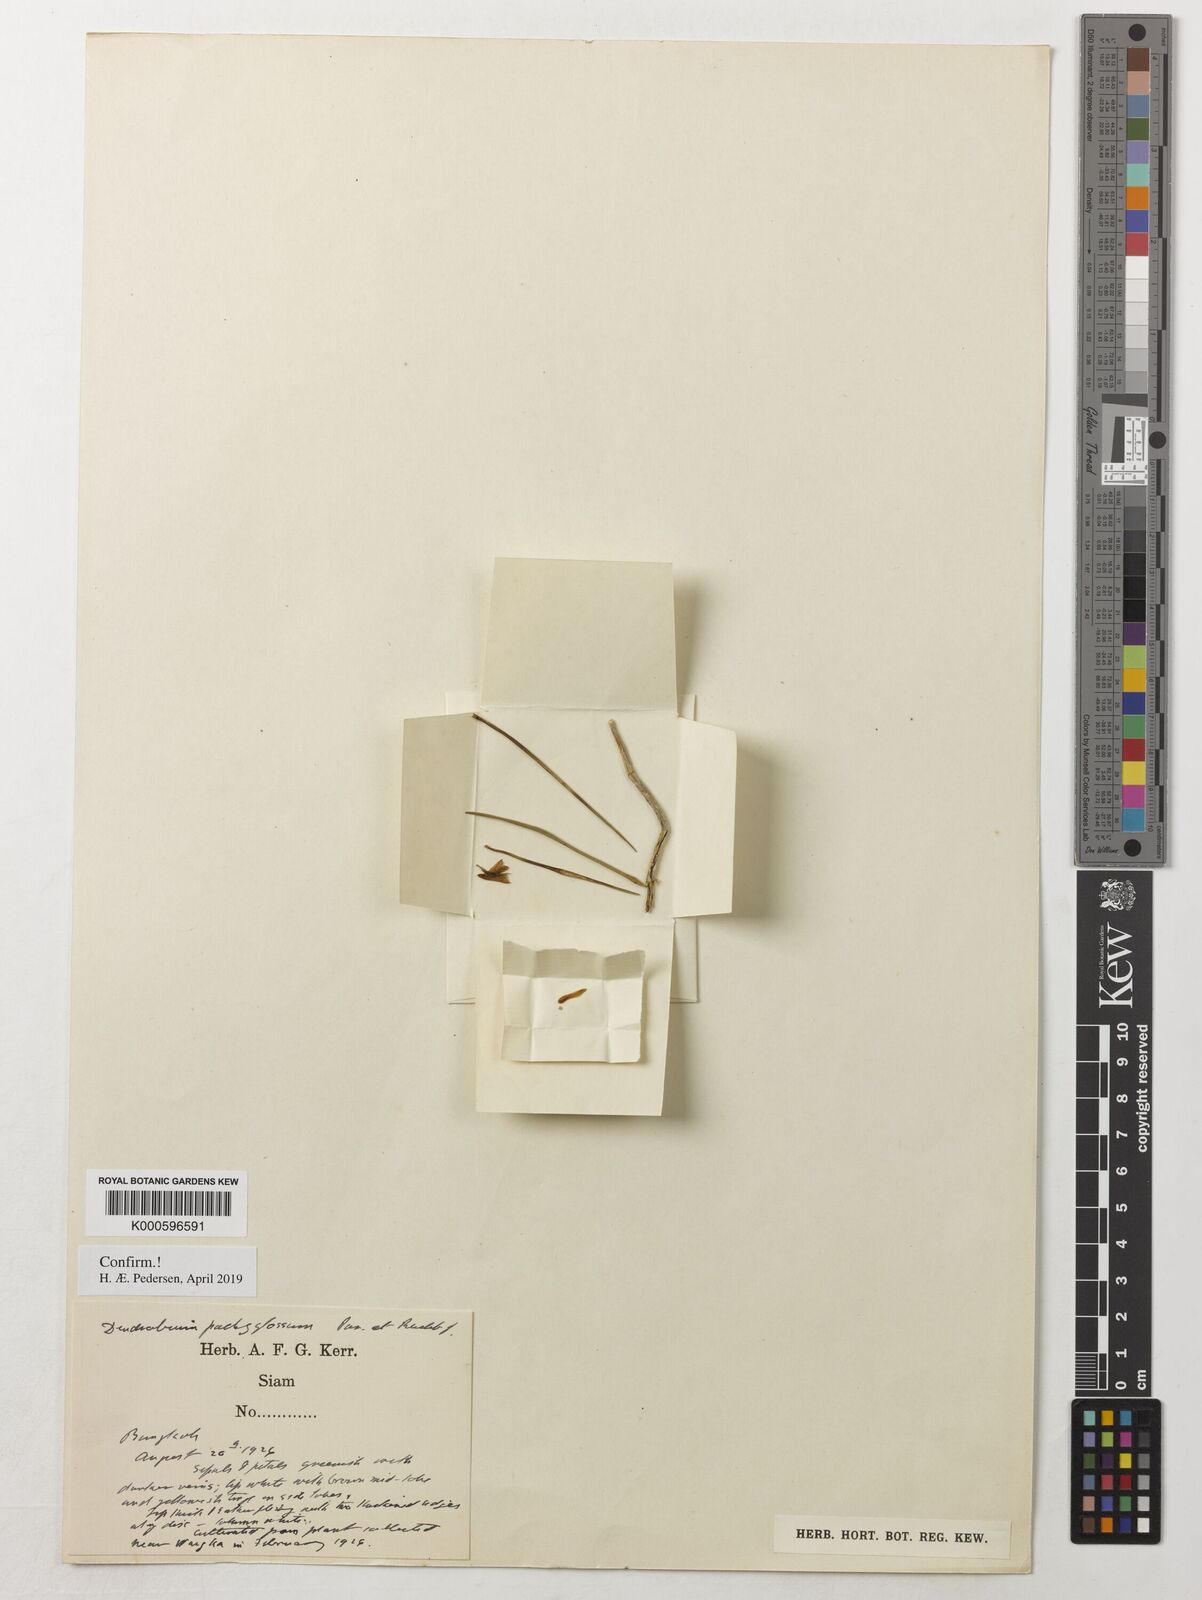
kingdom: Plantae
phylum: Tracheophyta
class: Liliopsida
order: Asparagales
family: Orchidaceae
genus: Dendrobium
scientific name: Dendrobium pachyglossum
